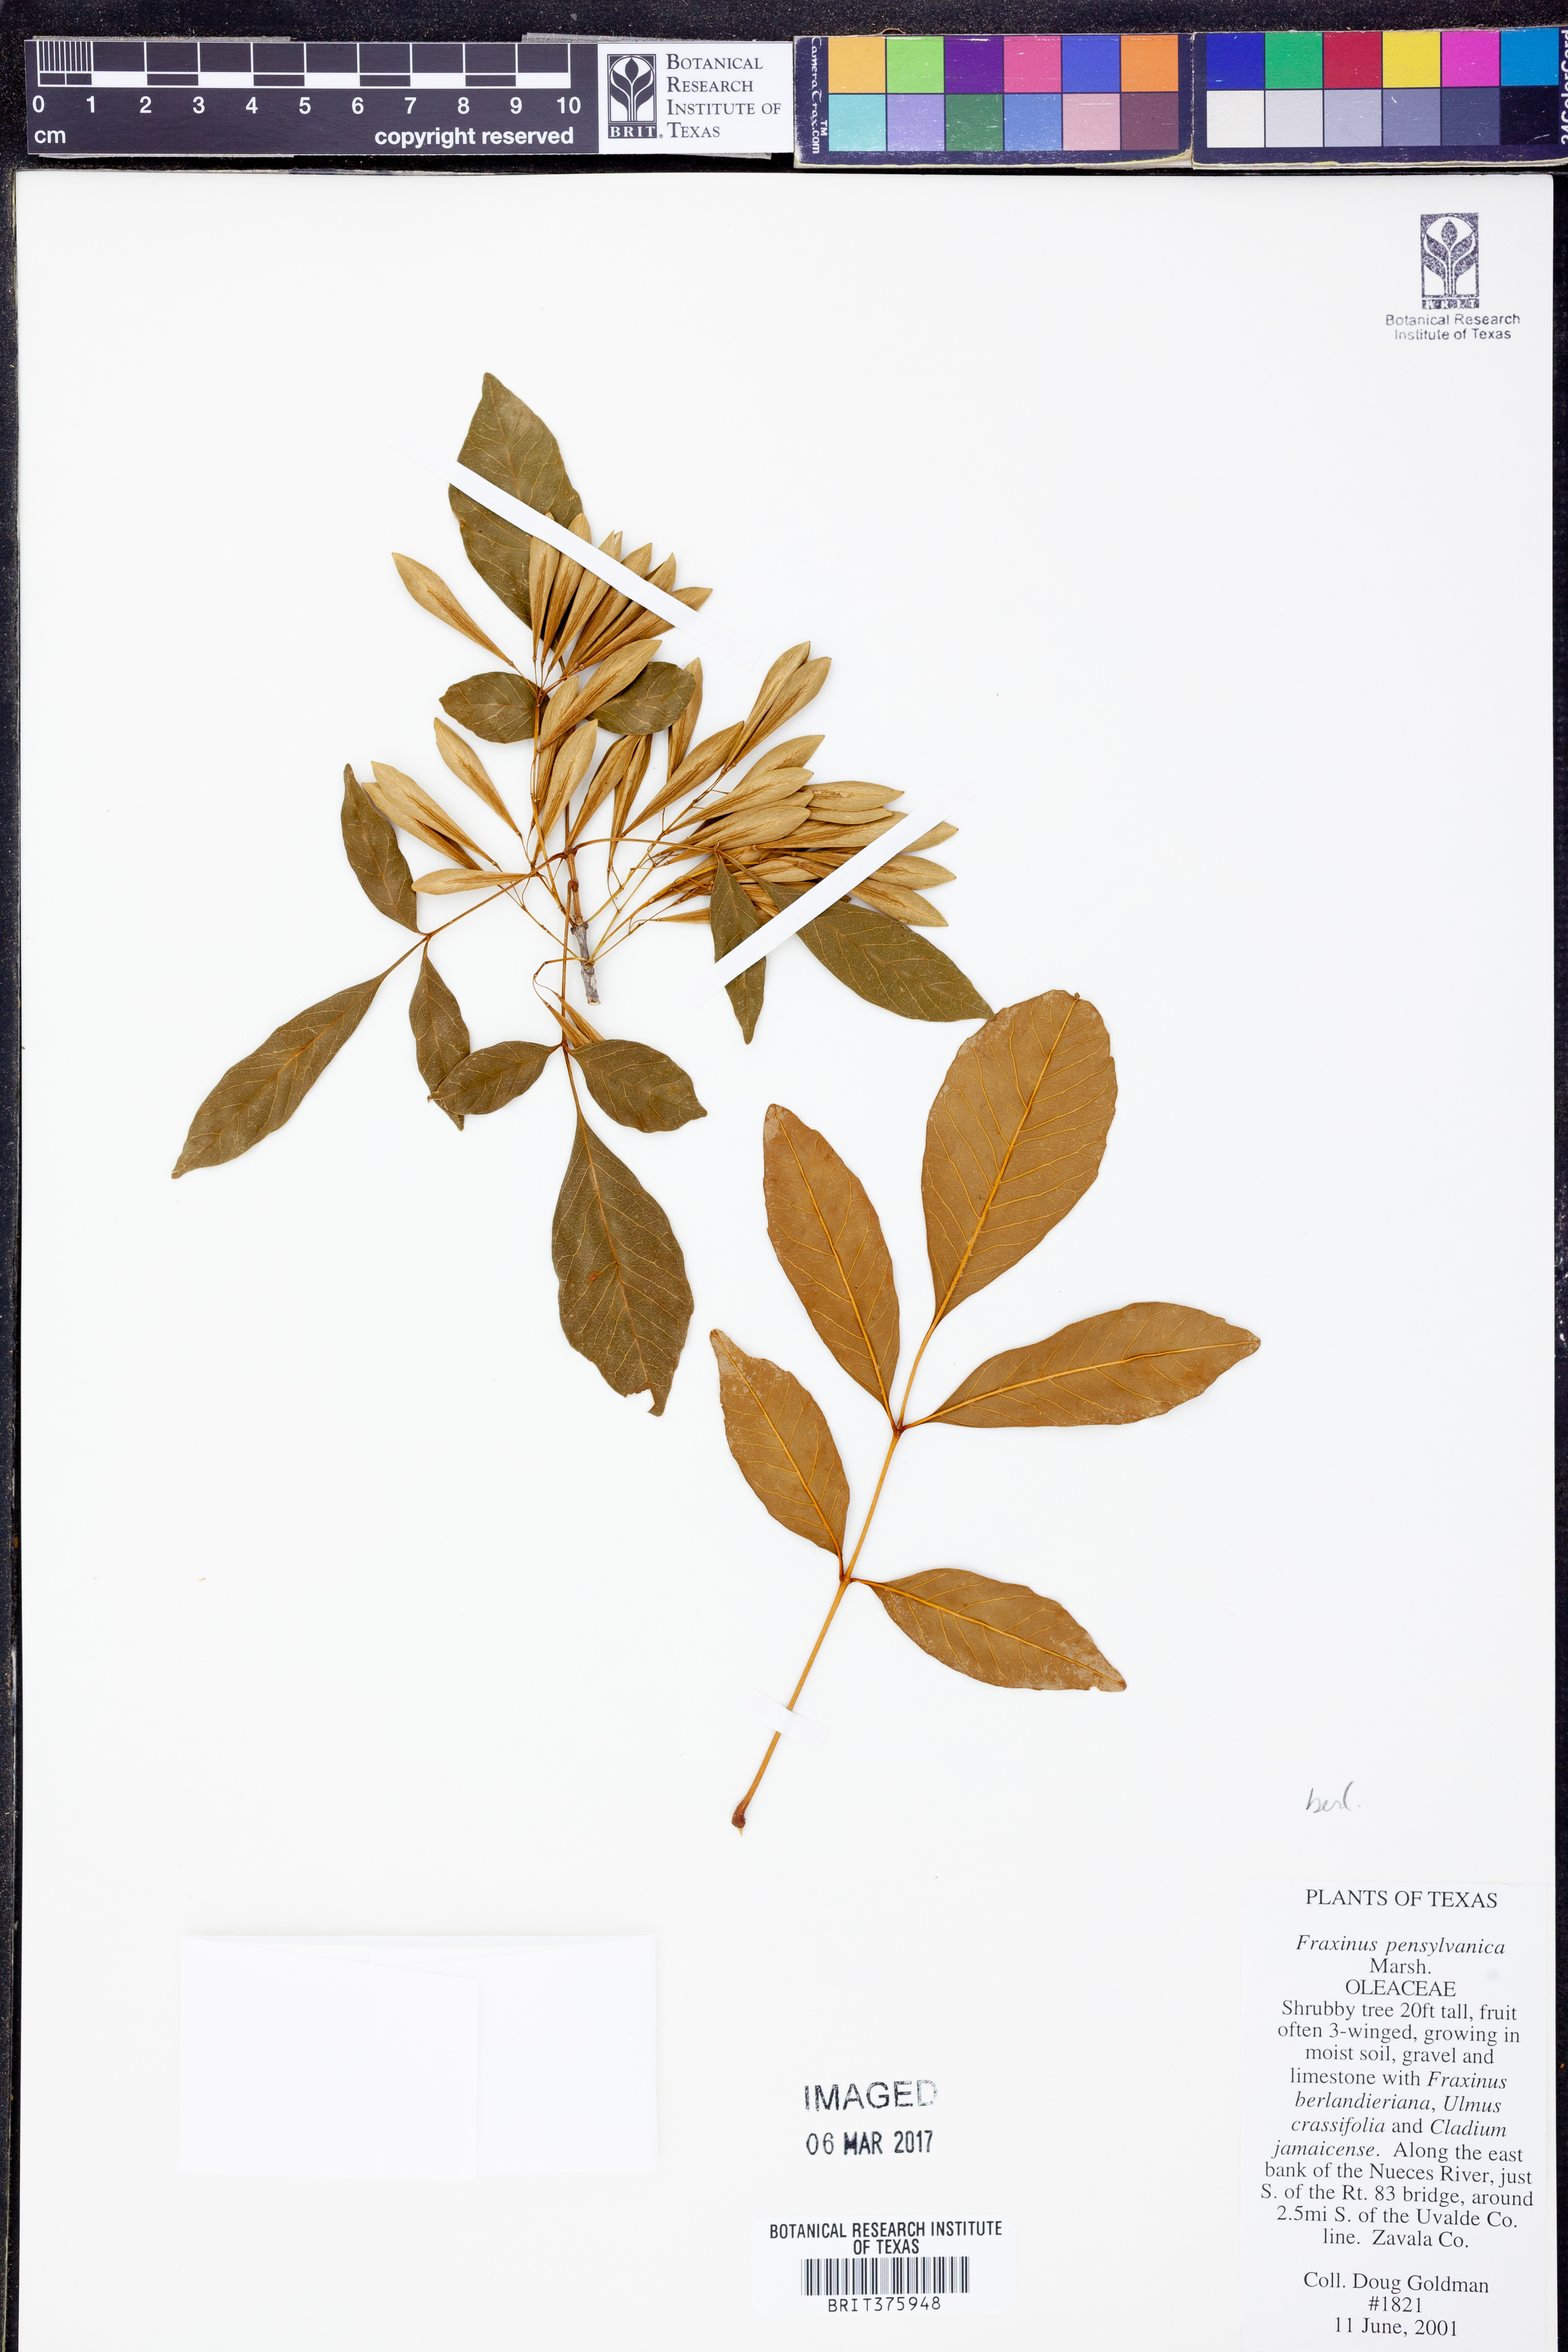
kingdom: Plantae
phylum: Tracheophyta
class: Magnoliopsida
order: Lamiales
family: Oleaceae
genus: Fraxinus
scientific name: Fraxinus berlandieriana
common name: Berlandier ash
